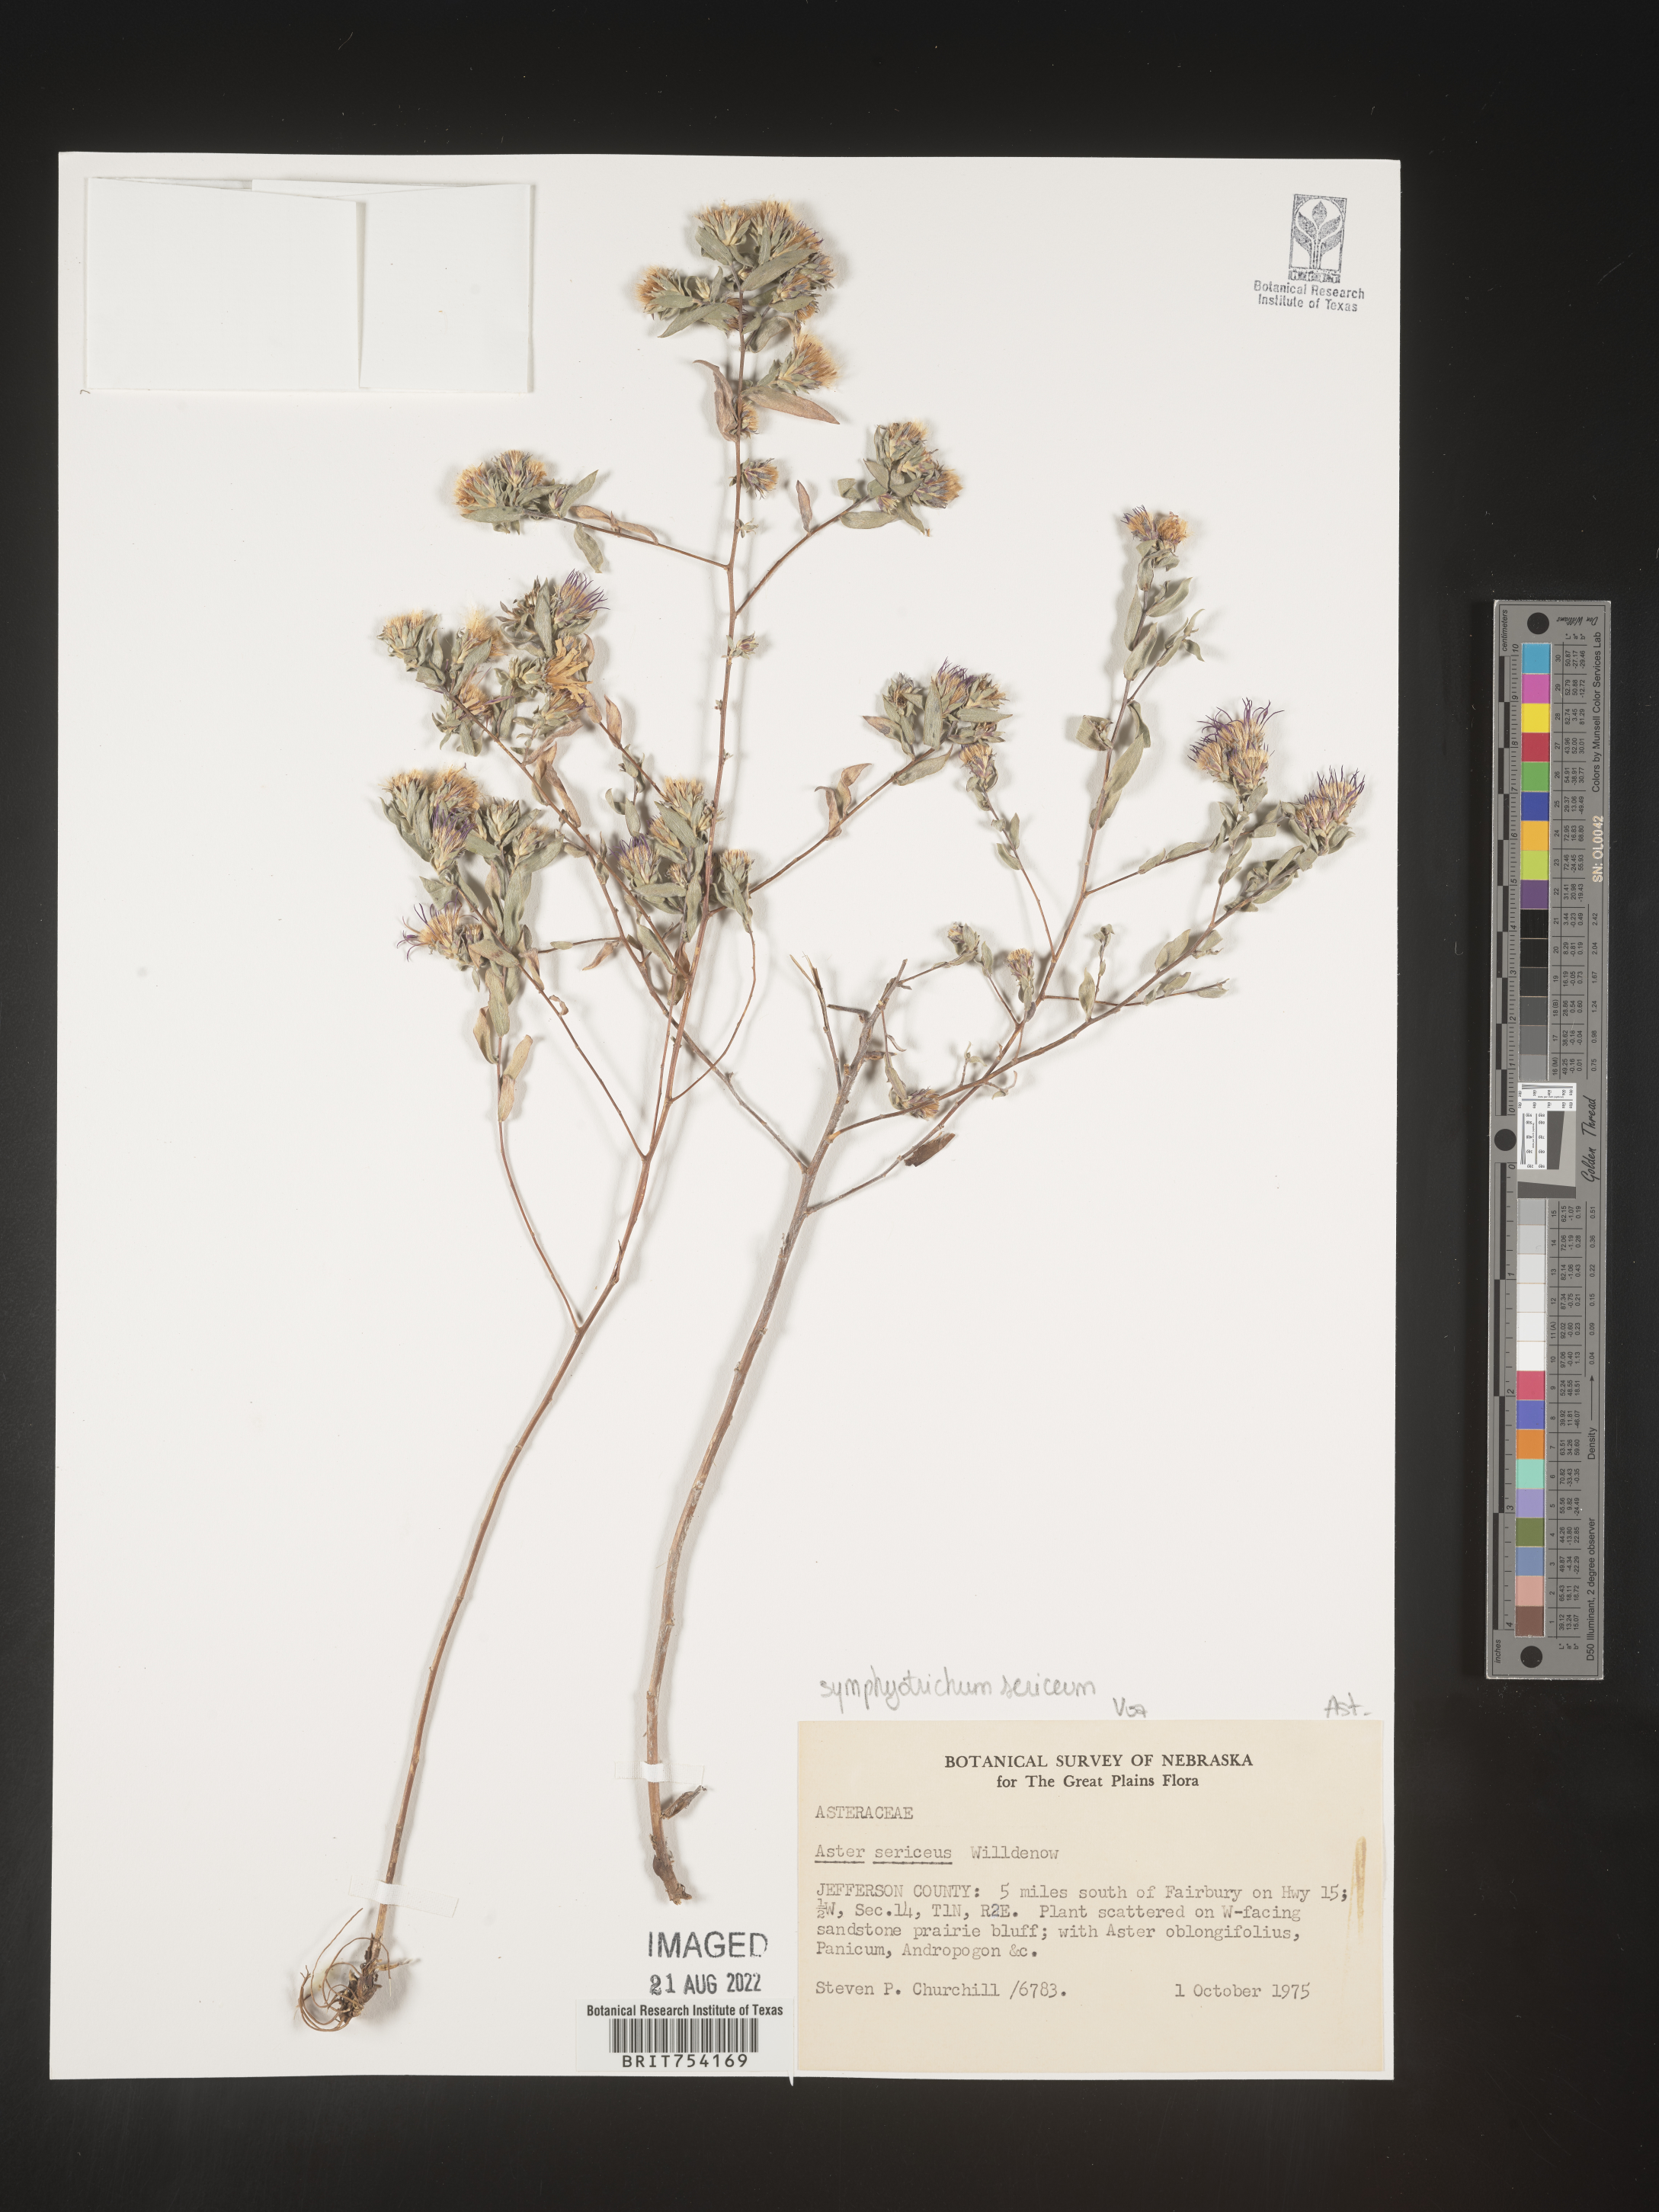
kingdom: Plantae
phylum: Tracheophyta
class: Magnoliopsida
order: Asterales
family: Asteraceae
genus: Symphyotrichum
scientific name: Symphyotrichum sericeum
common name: Silky aster
